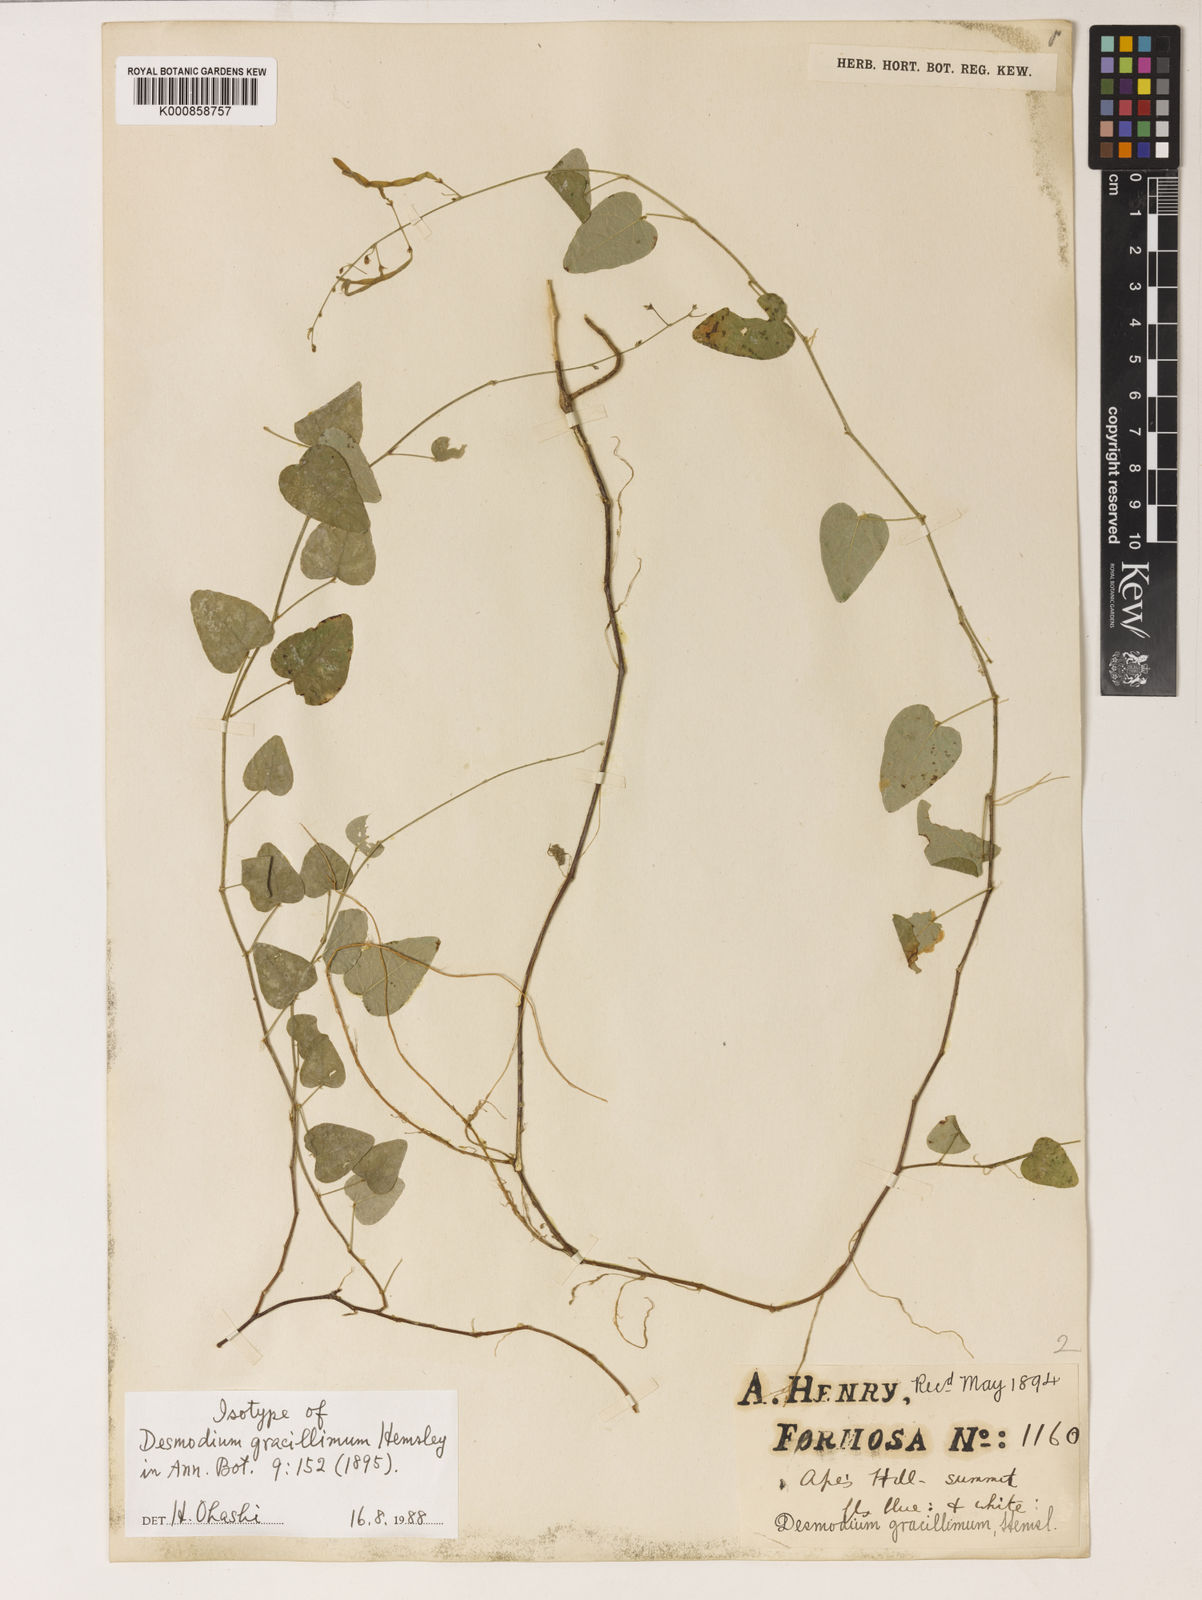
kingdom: Plantae
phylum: Tracheophyta
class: Magnoliopsida
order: Fabales
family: Fabaceae
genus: Sohmaea
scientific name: Sohmaea gracillima
